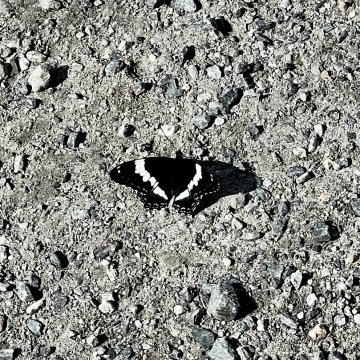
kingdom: Animalia
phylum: Arthropoda
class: Insecta
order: Lepidoptera
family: Nymphalidae
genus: Limenitis
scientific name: Limenitis arthemis
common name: Red-spotted Admiral
